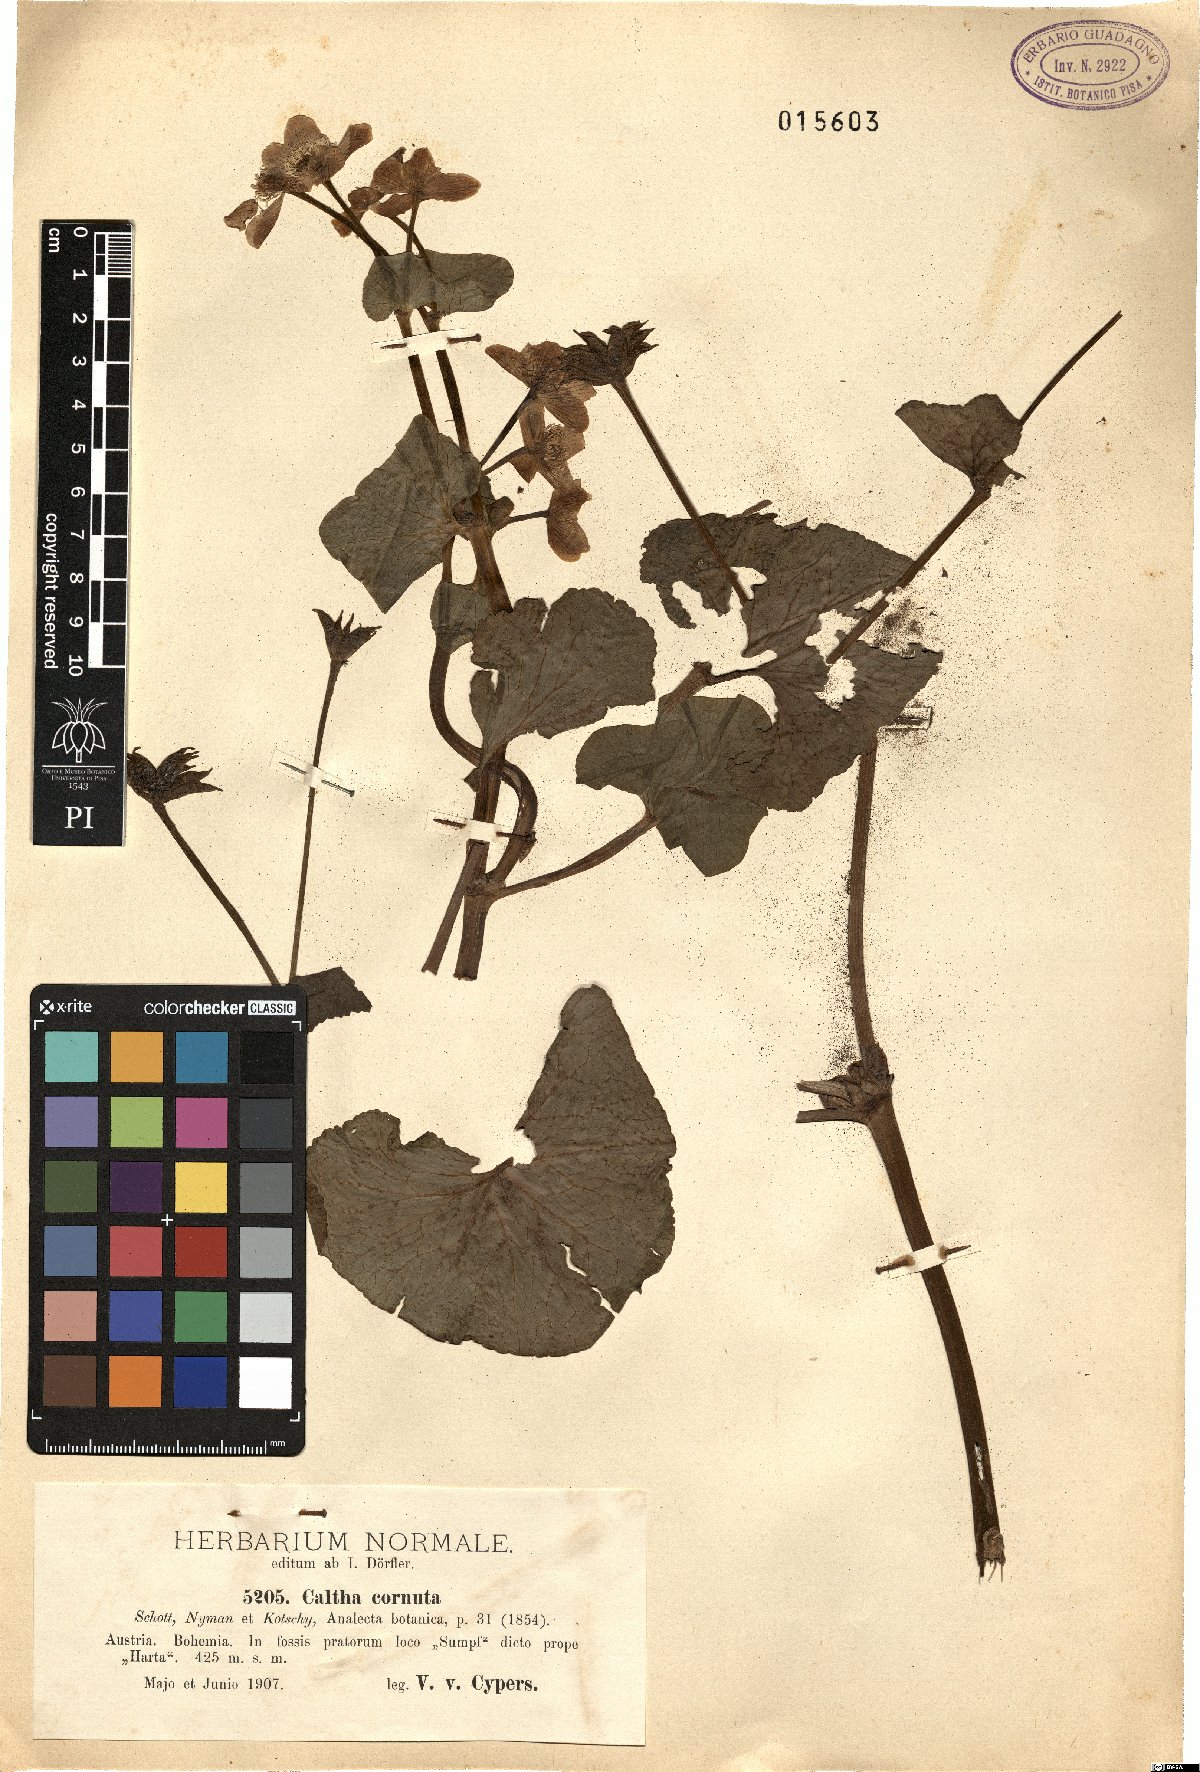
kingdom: Plantae
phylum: Tracheophyta
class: Magnoliopsida
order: Ranunculales
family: Ranunculaceae
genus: Caltha
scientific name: Caltha palustris
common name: Marsh marigold
